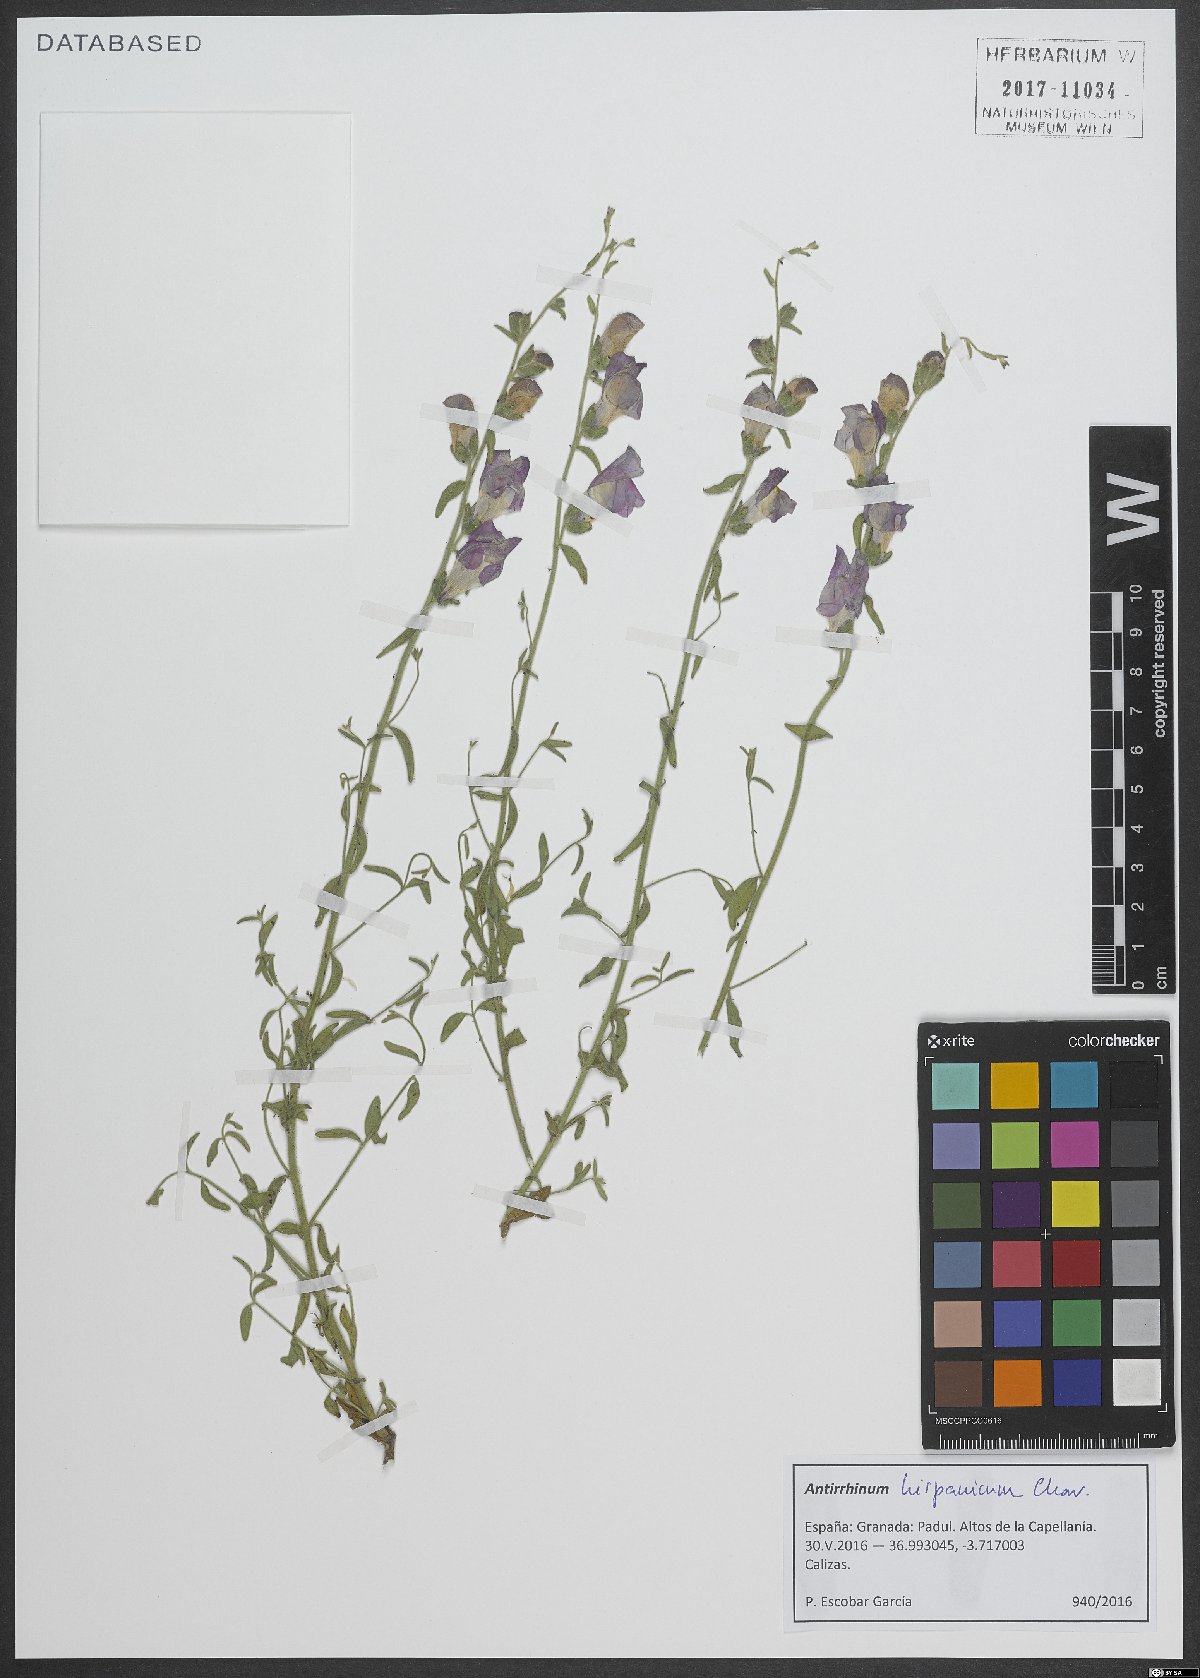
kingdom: Plantae
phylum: Tracheophyta
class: Magnoliopsida
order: Lamiales
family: Plantaginaceae
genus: Antirrhinum
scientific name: Antirrhinum hispanicum
